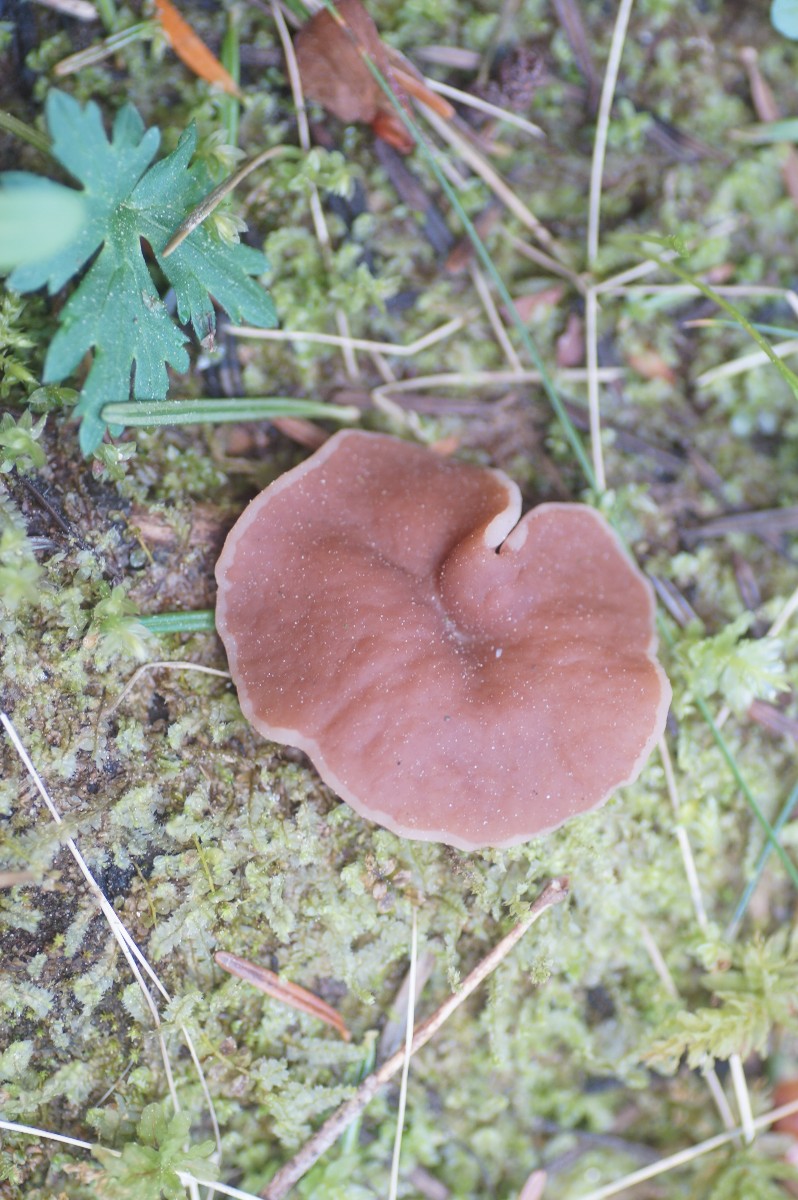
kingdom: Fungi
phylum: Ascomycota
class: Pezizomycetes
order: Pezizales
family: Discinaceae
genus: Discina
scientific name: Discina ancilis
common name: udbredt stenmorkel
